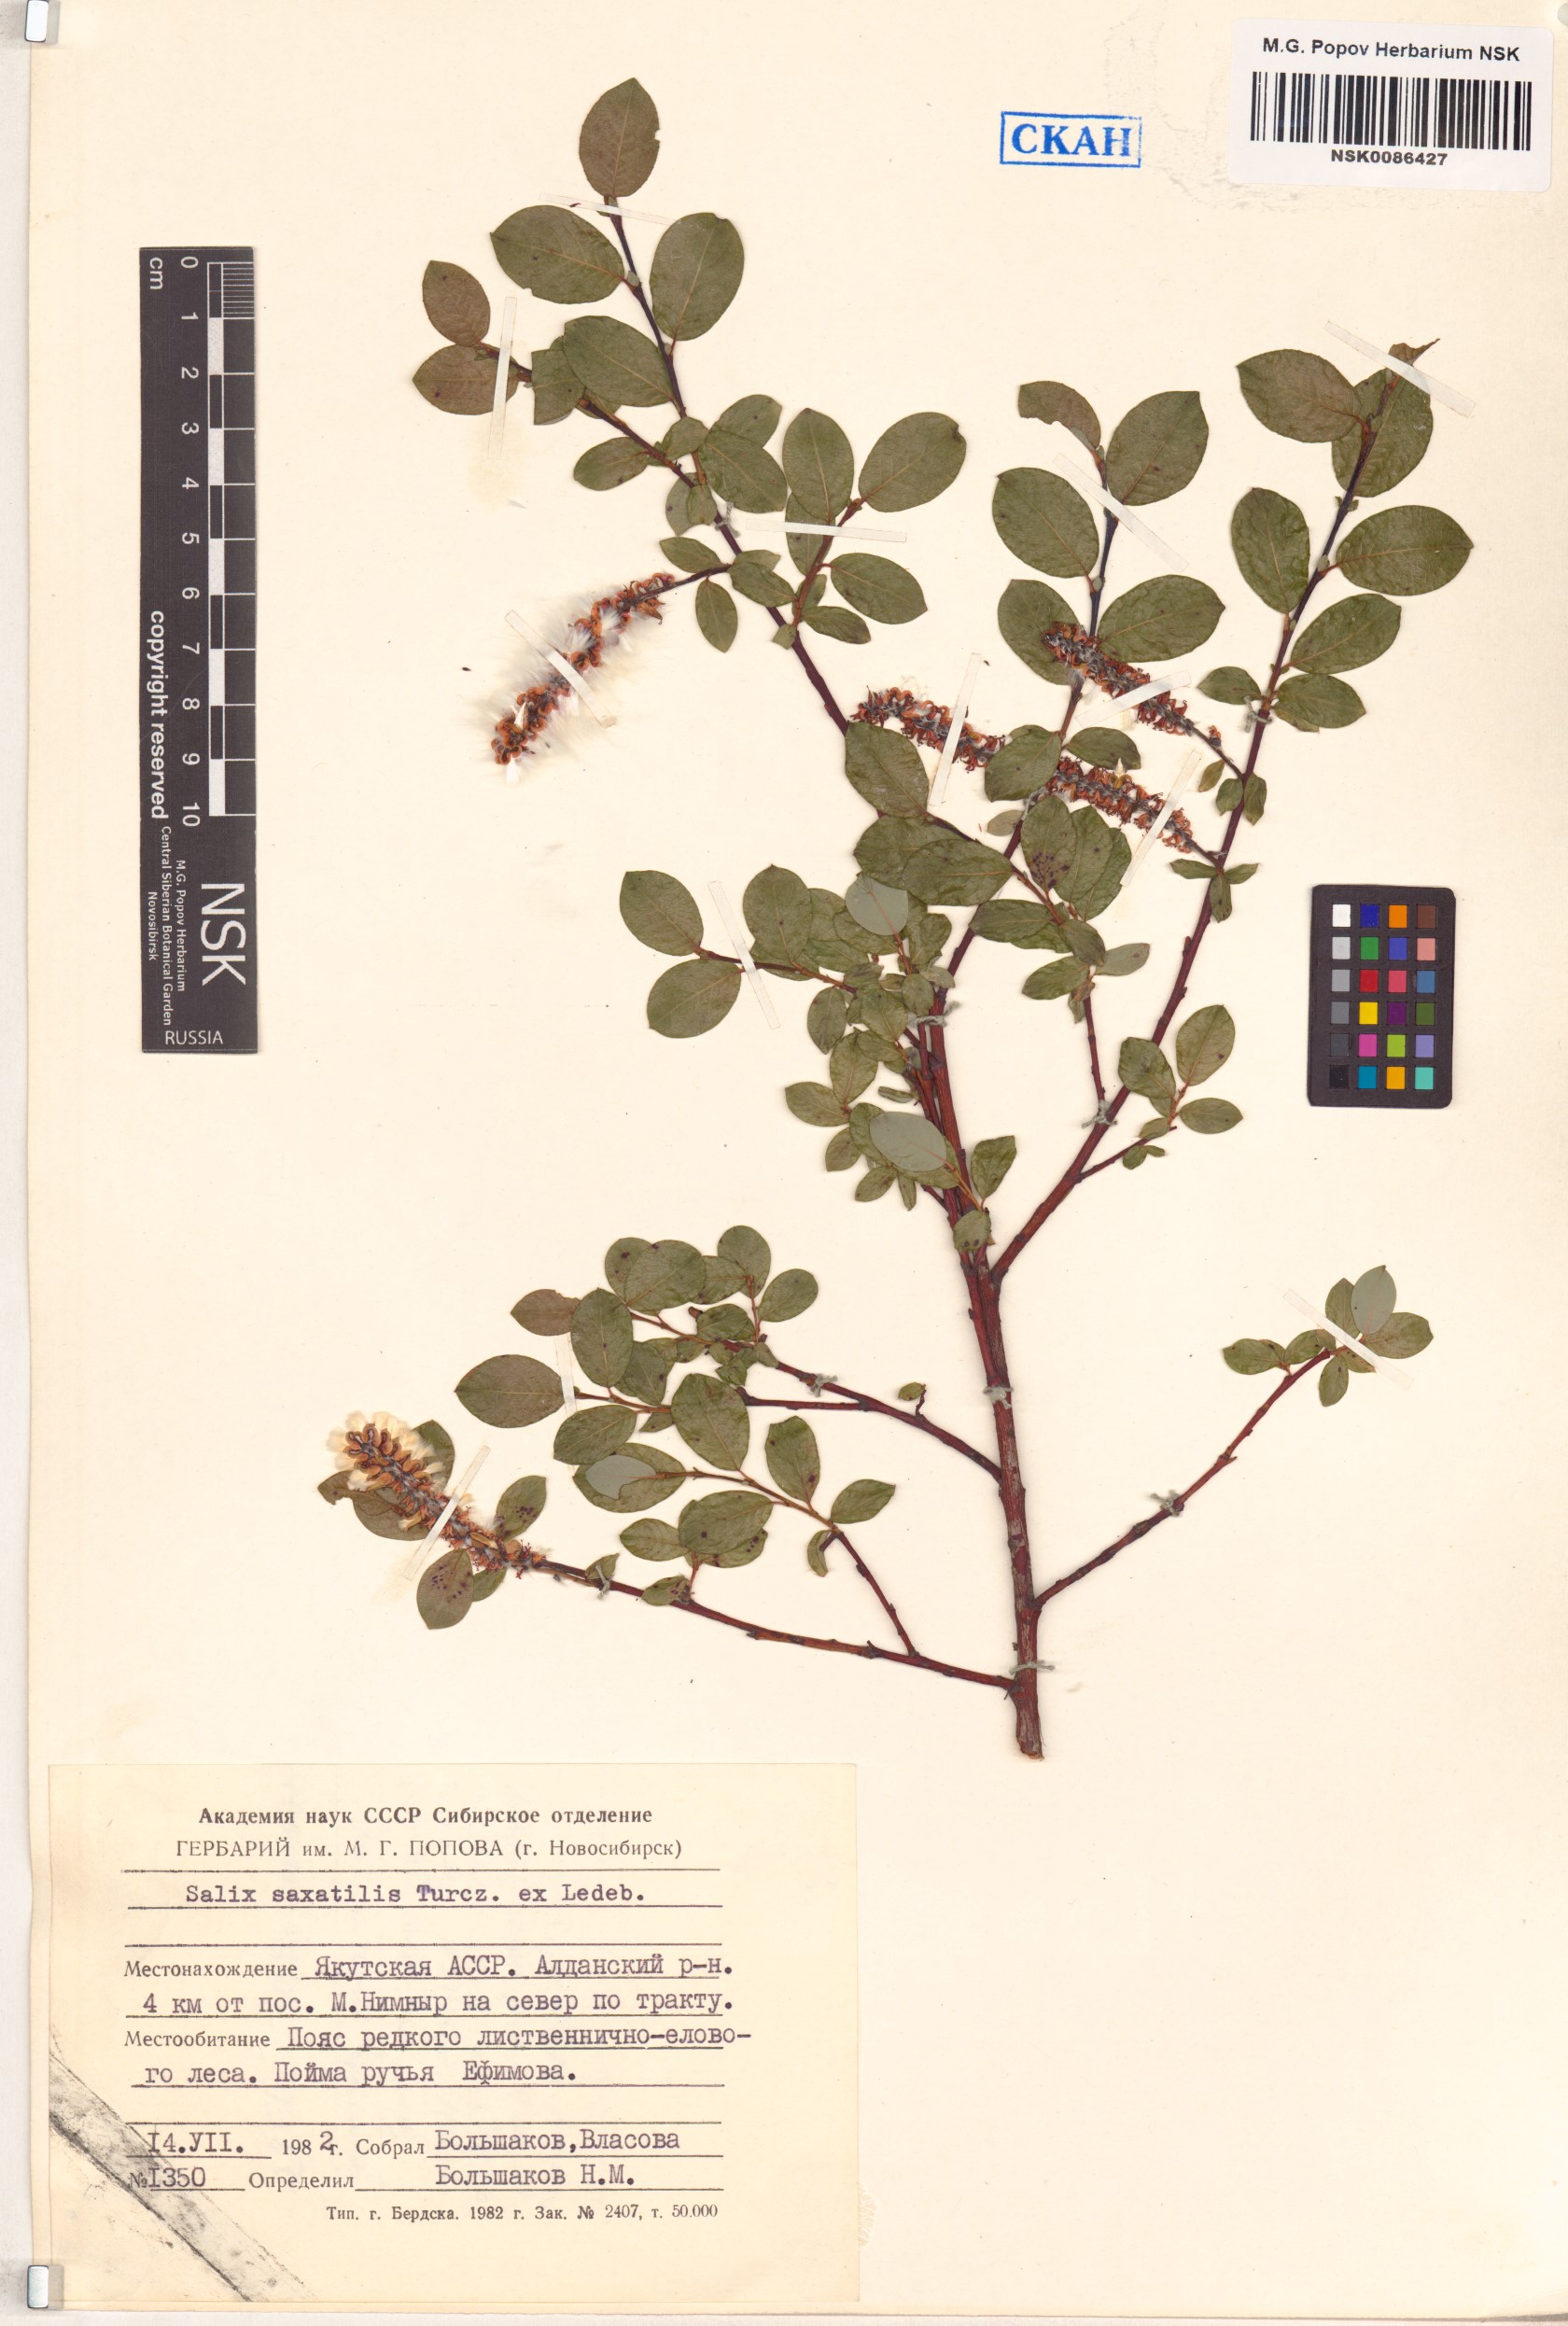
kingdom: Plantae
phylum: Tracheophyta
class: Magnoliopsida
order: Malpighiales
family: Salicaceae
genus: Salix
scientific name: Salix saxatilis
